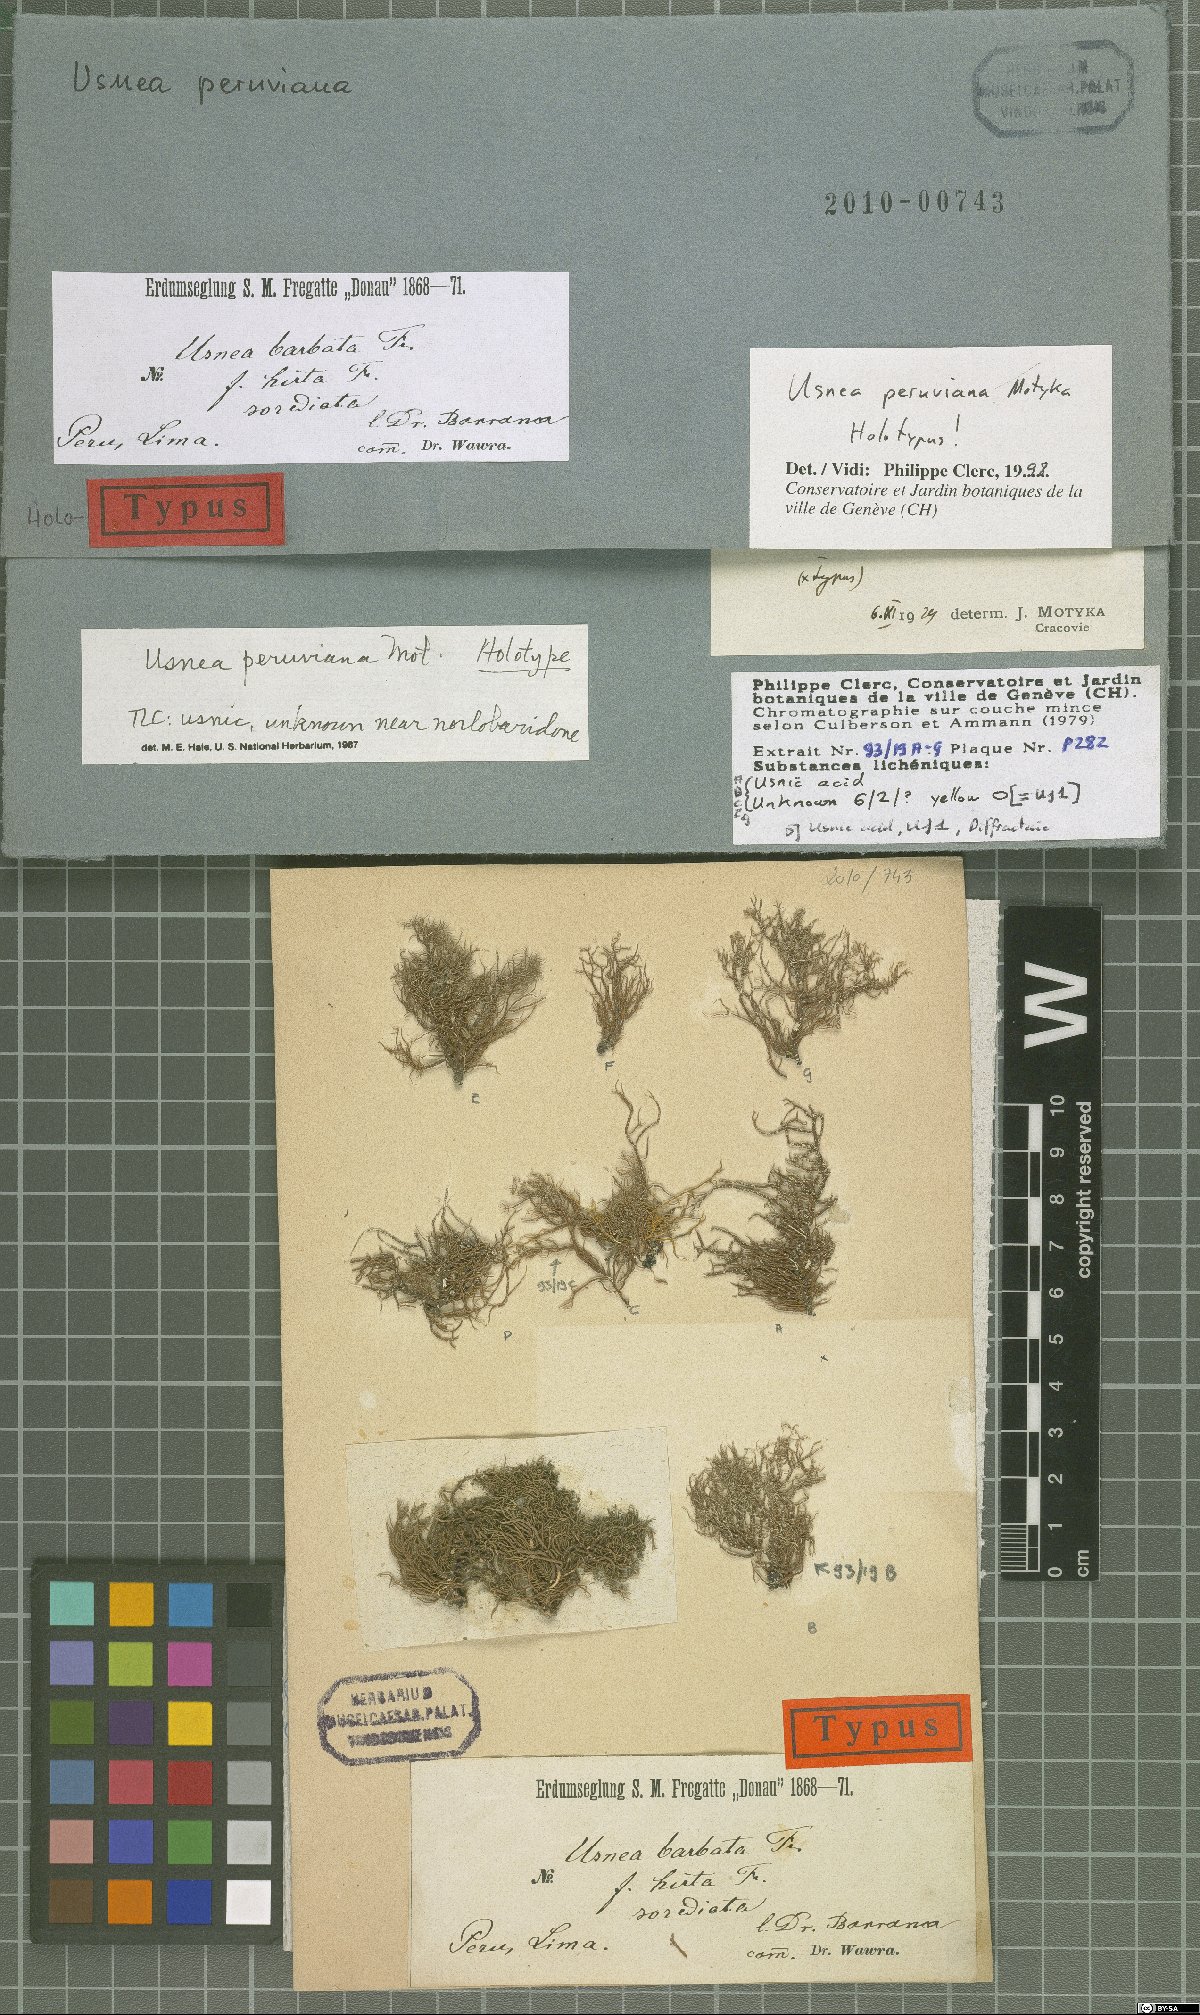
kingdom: Fungi
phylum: Ascomycota
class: Lecanoromycetes
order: Lecanorales
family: Parmeliaceae
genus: Usnea
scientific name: Usnea
